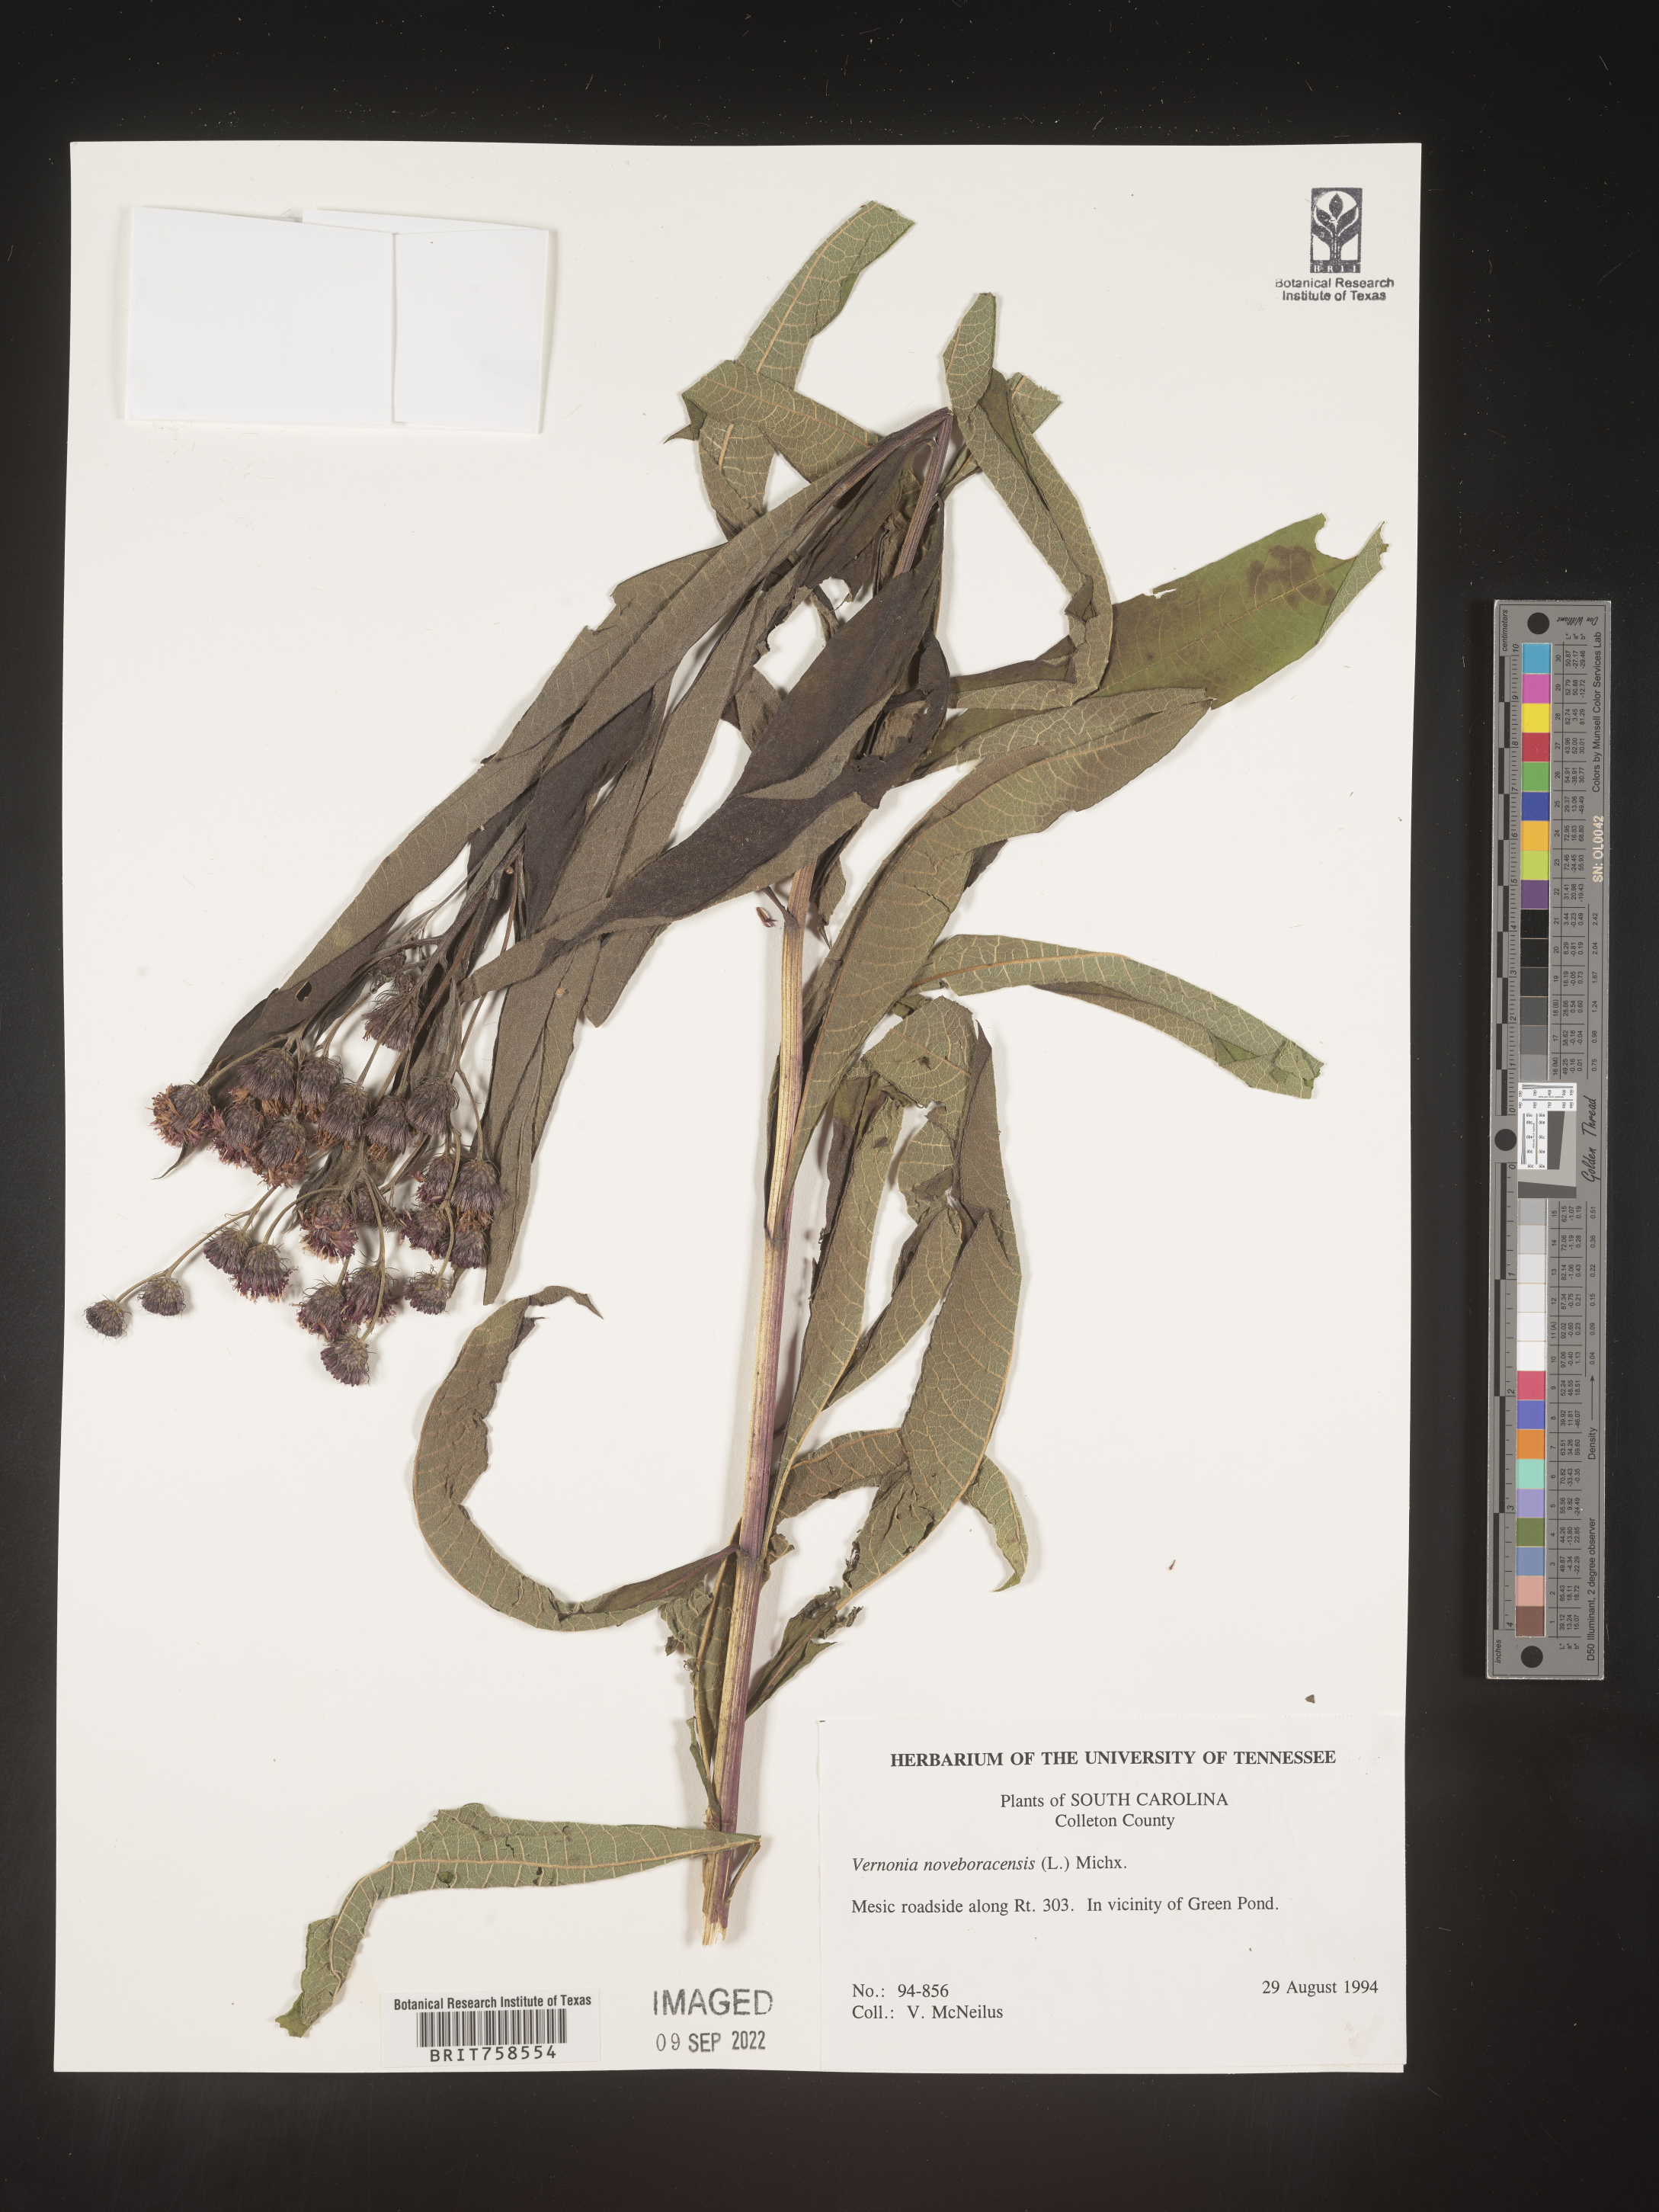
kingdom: Plantae
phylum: Tracheophyta
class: Magnoliopsida
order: Asterales
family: Asteraceae
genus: Vernonia
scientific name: Vernonia noveboracensis
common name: New york ironweed
